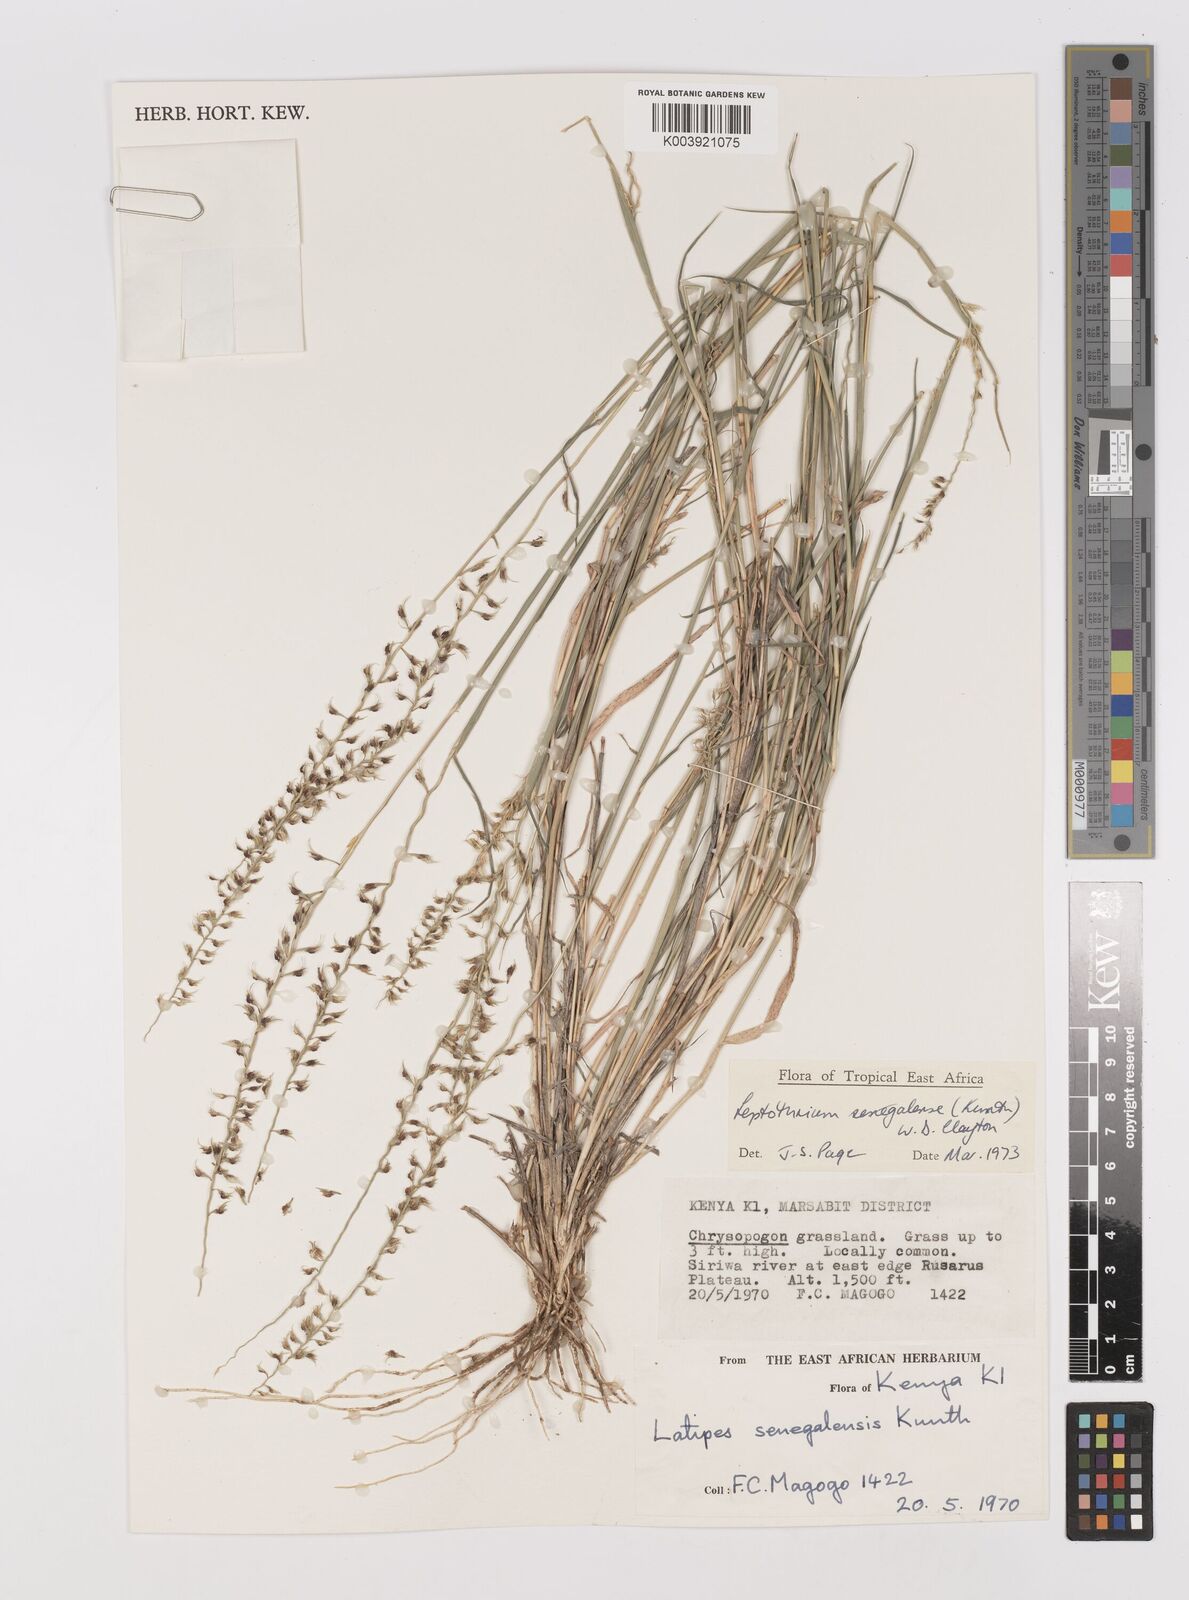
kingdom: Plantae
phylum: Tracheophyta
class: Liliopsida
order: Poales
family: Poaceae
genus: Leptothrium
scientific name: Leptothrium senegalense
